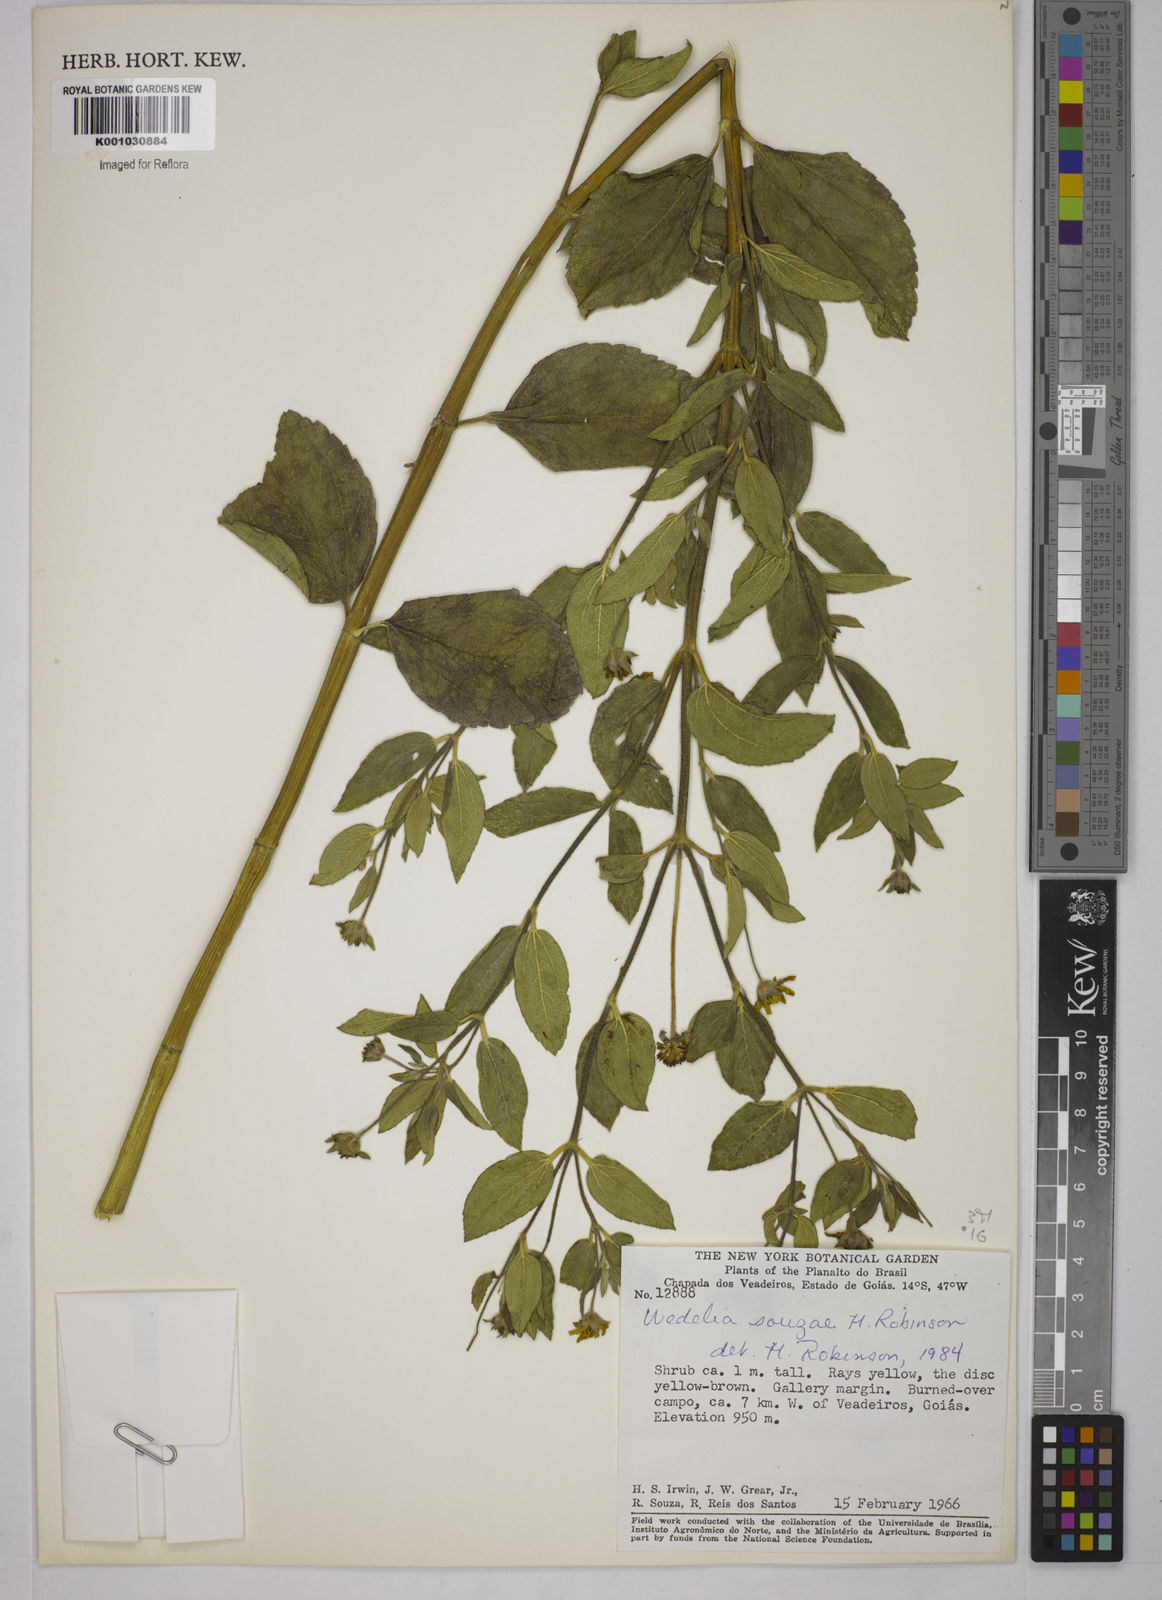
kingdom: Plantae
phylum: Tracheophyta
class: Magnoliopsida
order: Asterales
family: Asteraceae
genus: Wedelia
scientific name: Wedelia souzae
